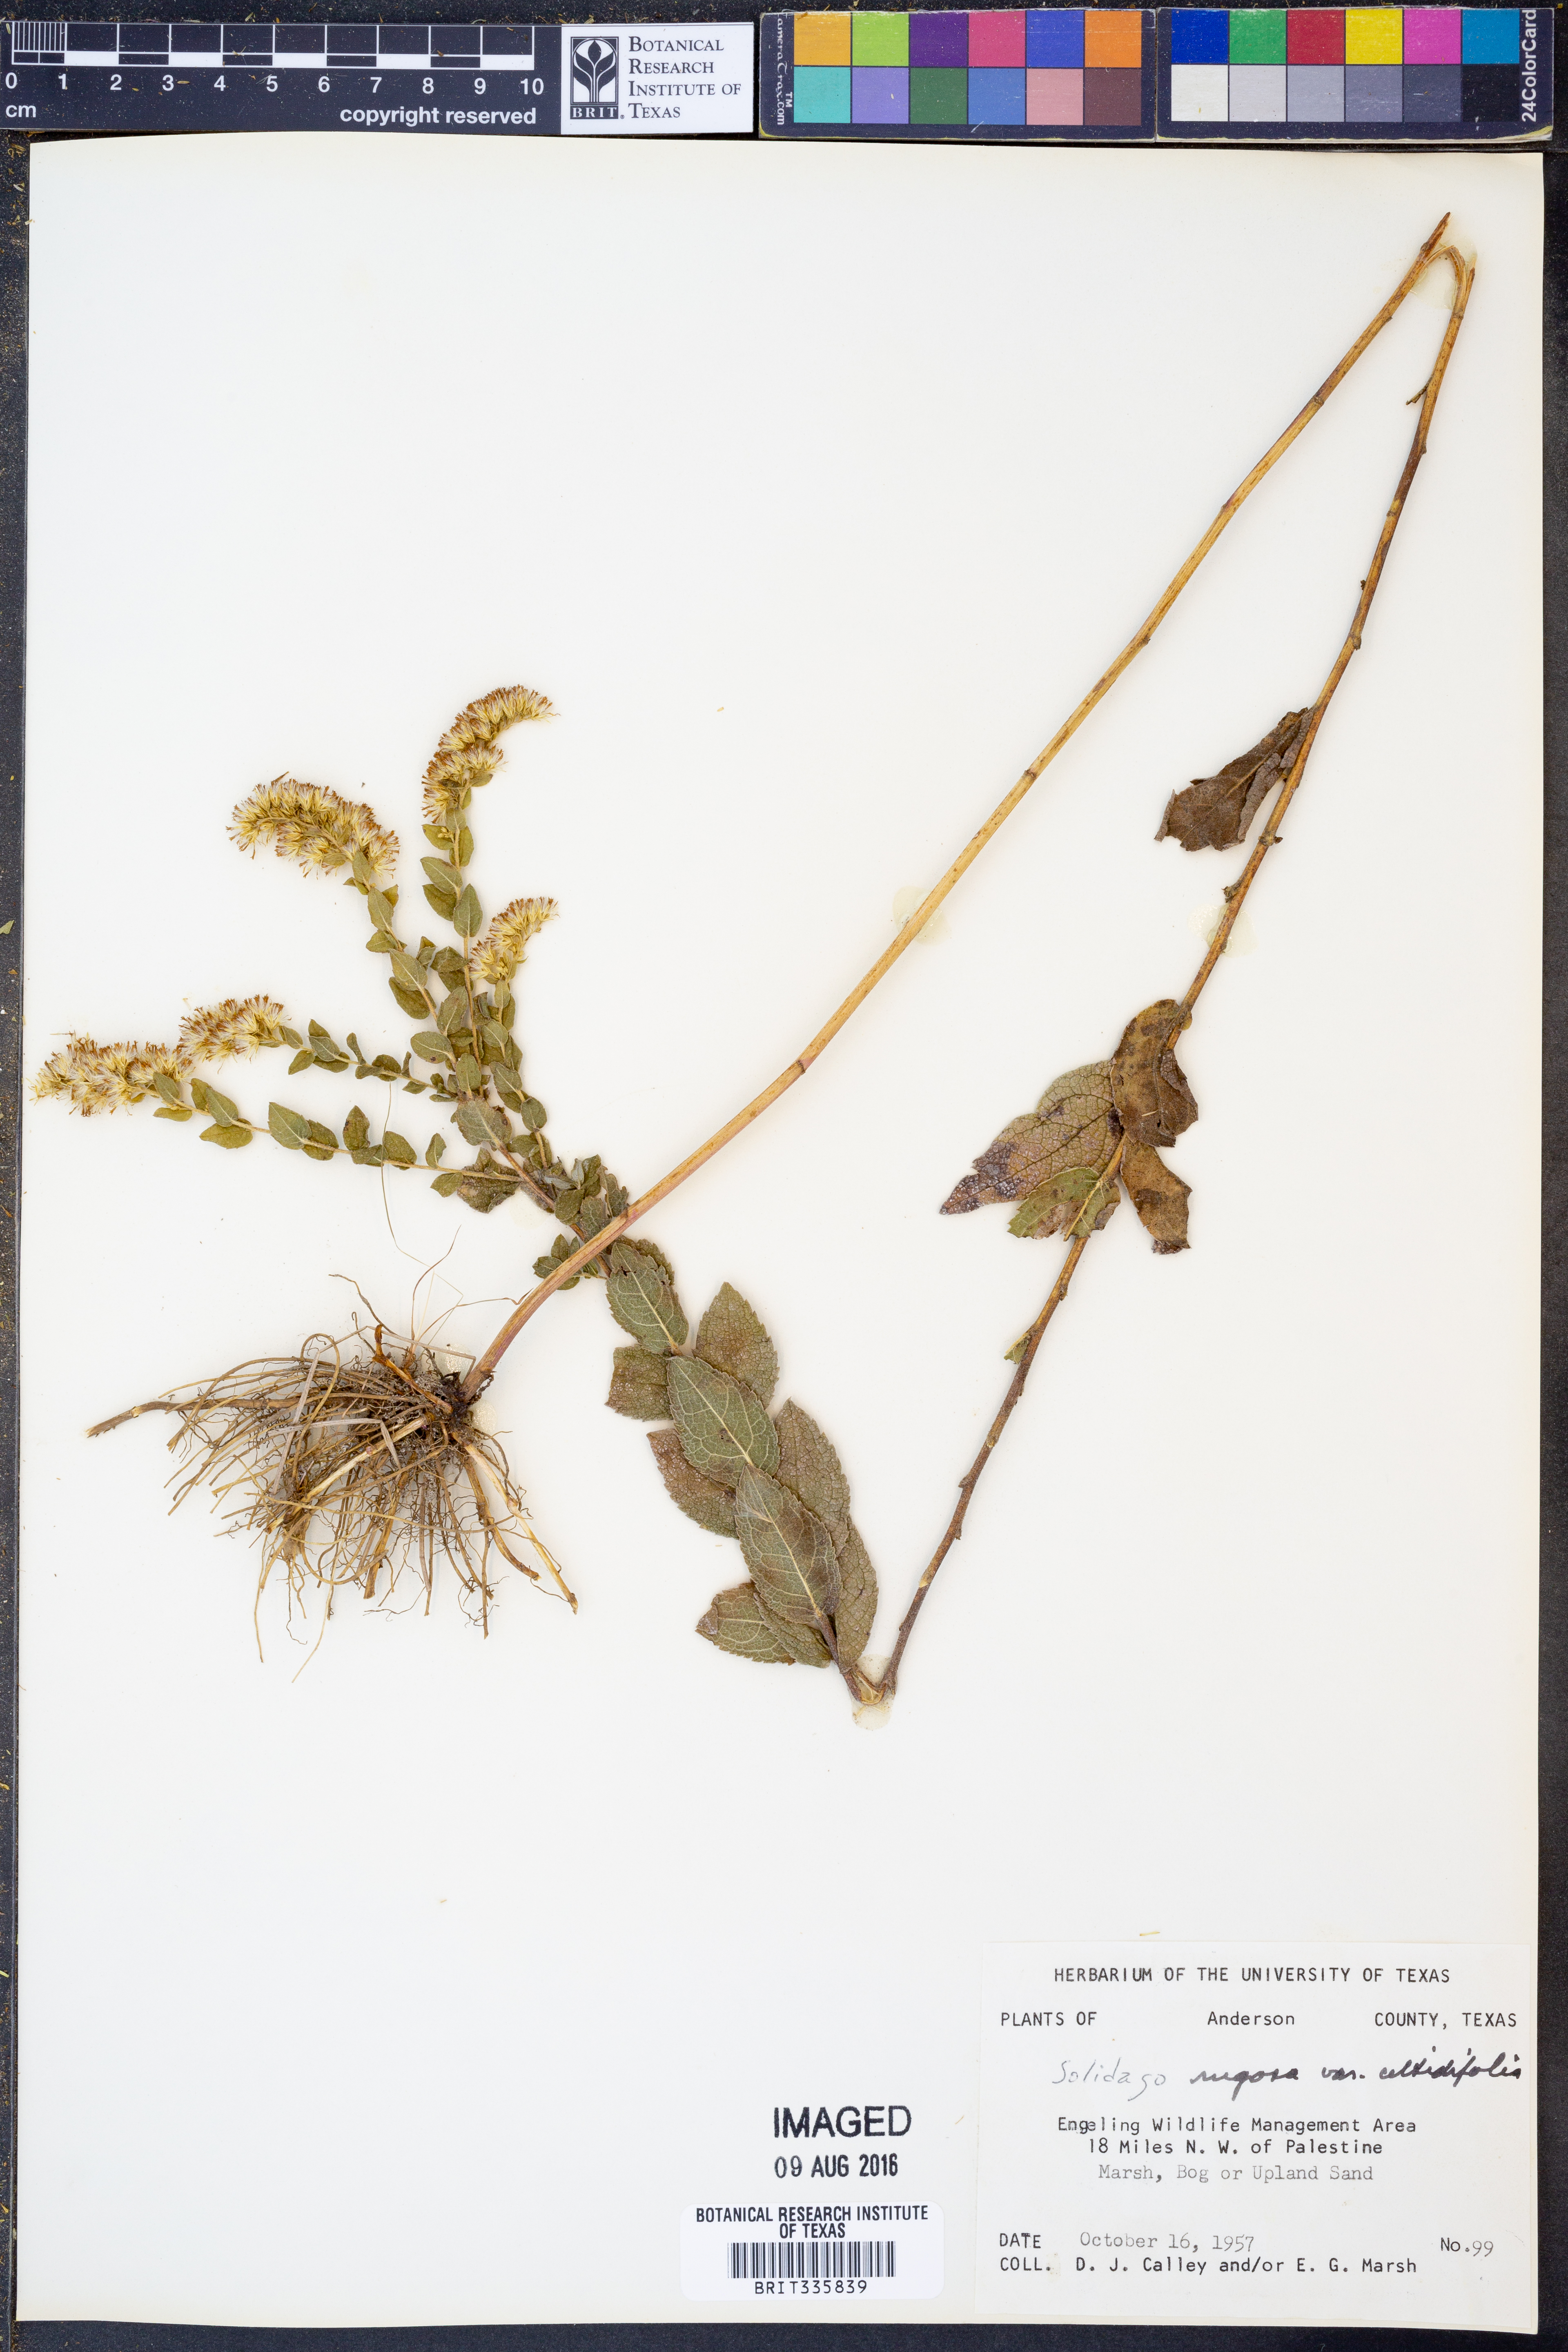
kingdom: Plantae
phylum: Tracheophyta
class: Magnoliopsida
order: Asterales
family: Asteraceae
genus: Solidago
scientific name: Solidago rugosa
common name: Rough-stemmed goldenrod
